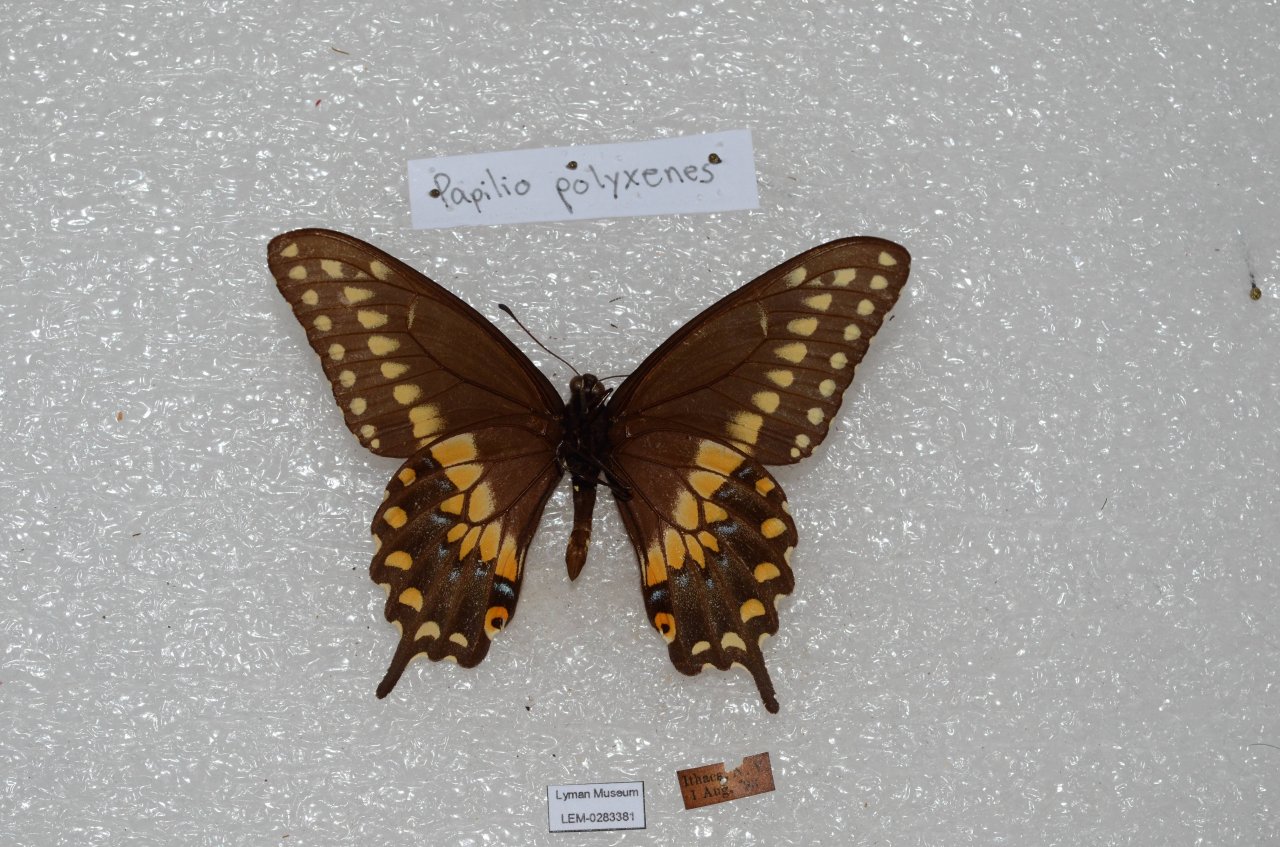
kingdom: Animalia
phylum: Arthropoda
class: Insecta
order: Lepidoptera
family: Papilionidae
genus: Papilio
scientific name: Papilio polyxenes
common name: Black Swallowtail
